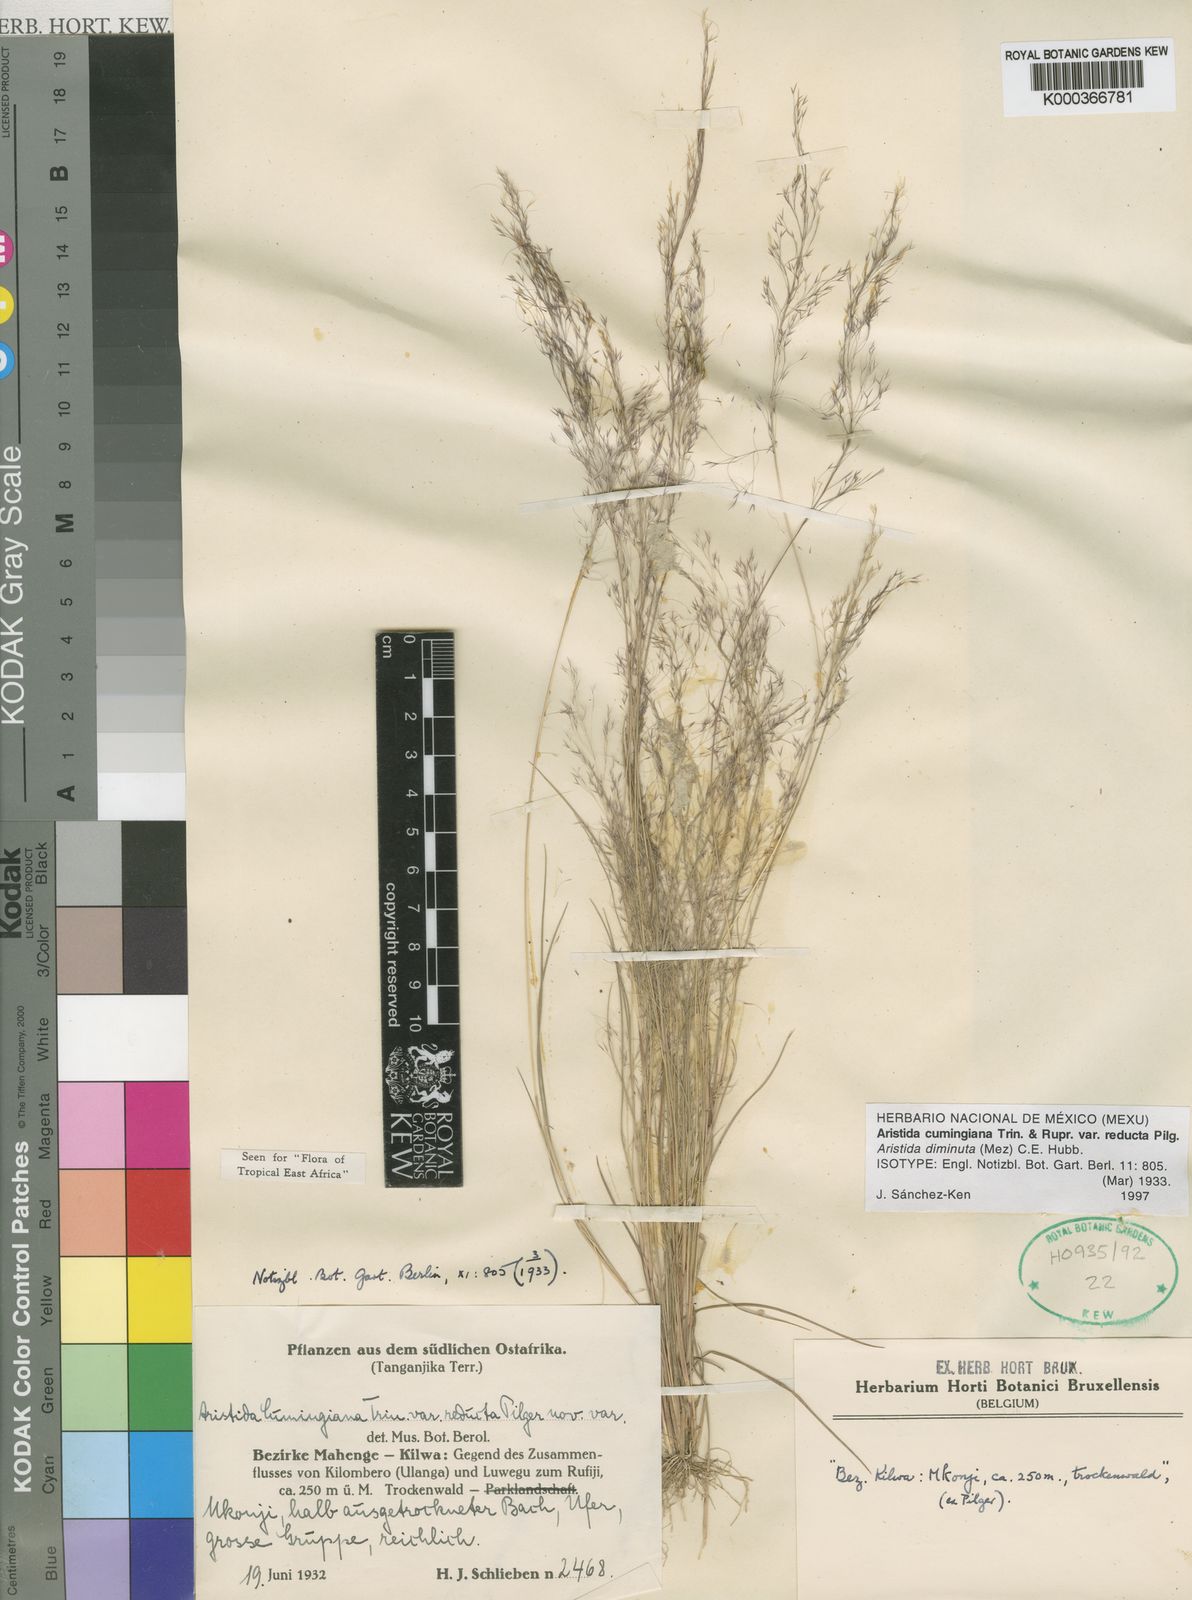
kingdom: Plantae
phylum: Tracheophyta
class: Liliopsida
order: Poales
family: Poaceae
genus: Aristida
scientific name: Aristida cumingiana
